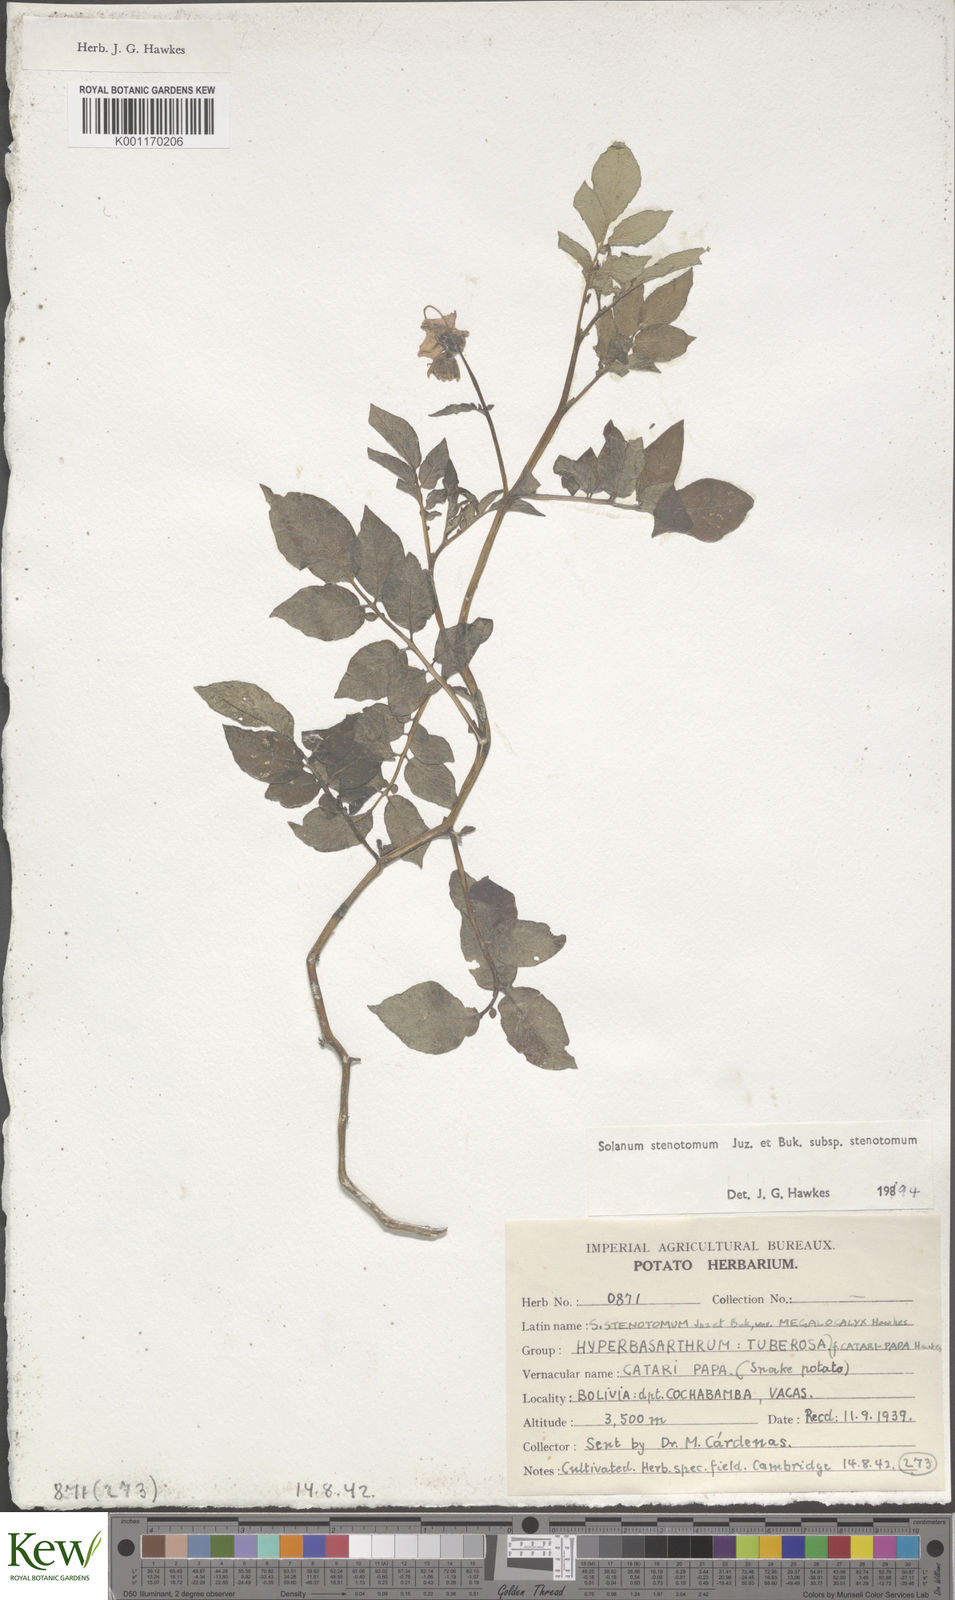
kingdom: Plantae
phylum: Tracheophyta
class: Magnoliopsida
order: Solanales
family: Solanaceae
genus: Solanum
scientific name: Solanum tuberosum
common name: Potato
